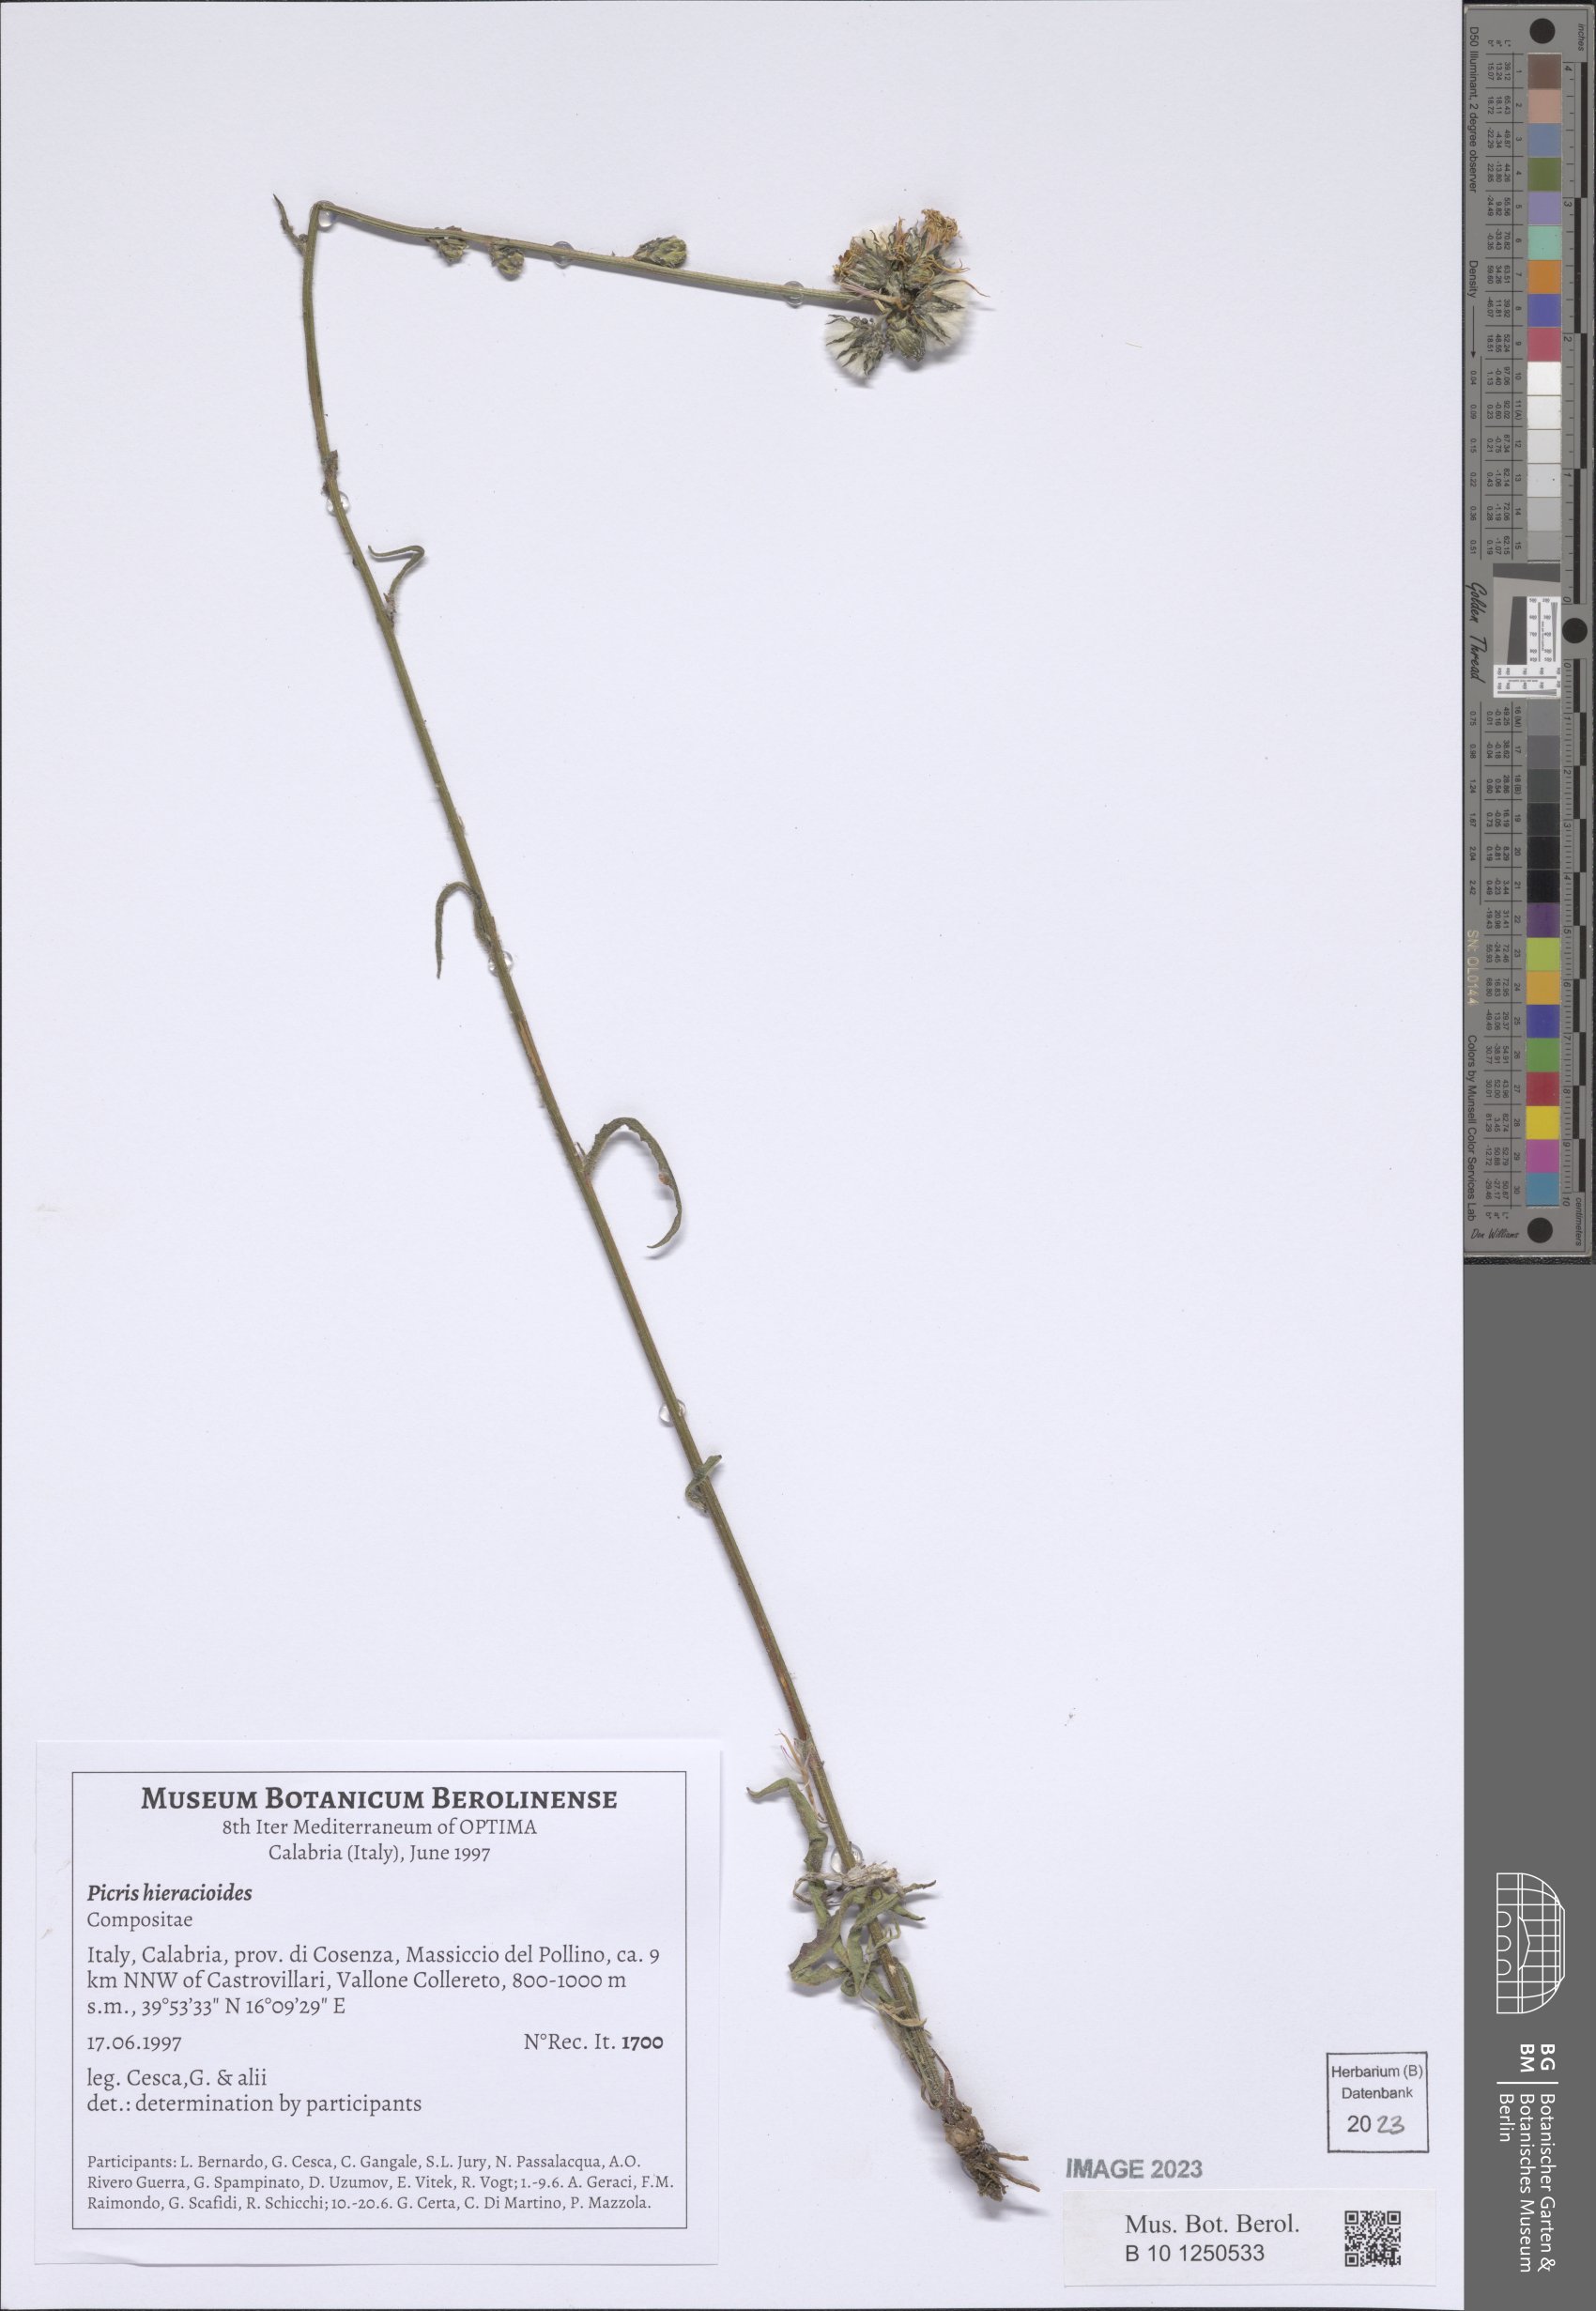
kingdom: Plantae
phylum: Tracheophyta
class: Magnoliopsida
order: Asterales
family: Asteraceae
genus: Picris
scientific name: Picris hieracioides
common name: Hawkweed oxtongue
